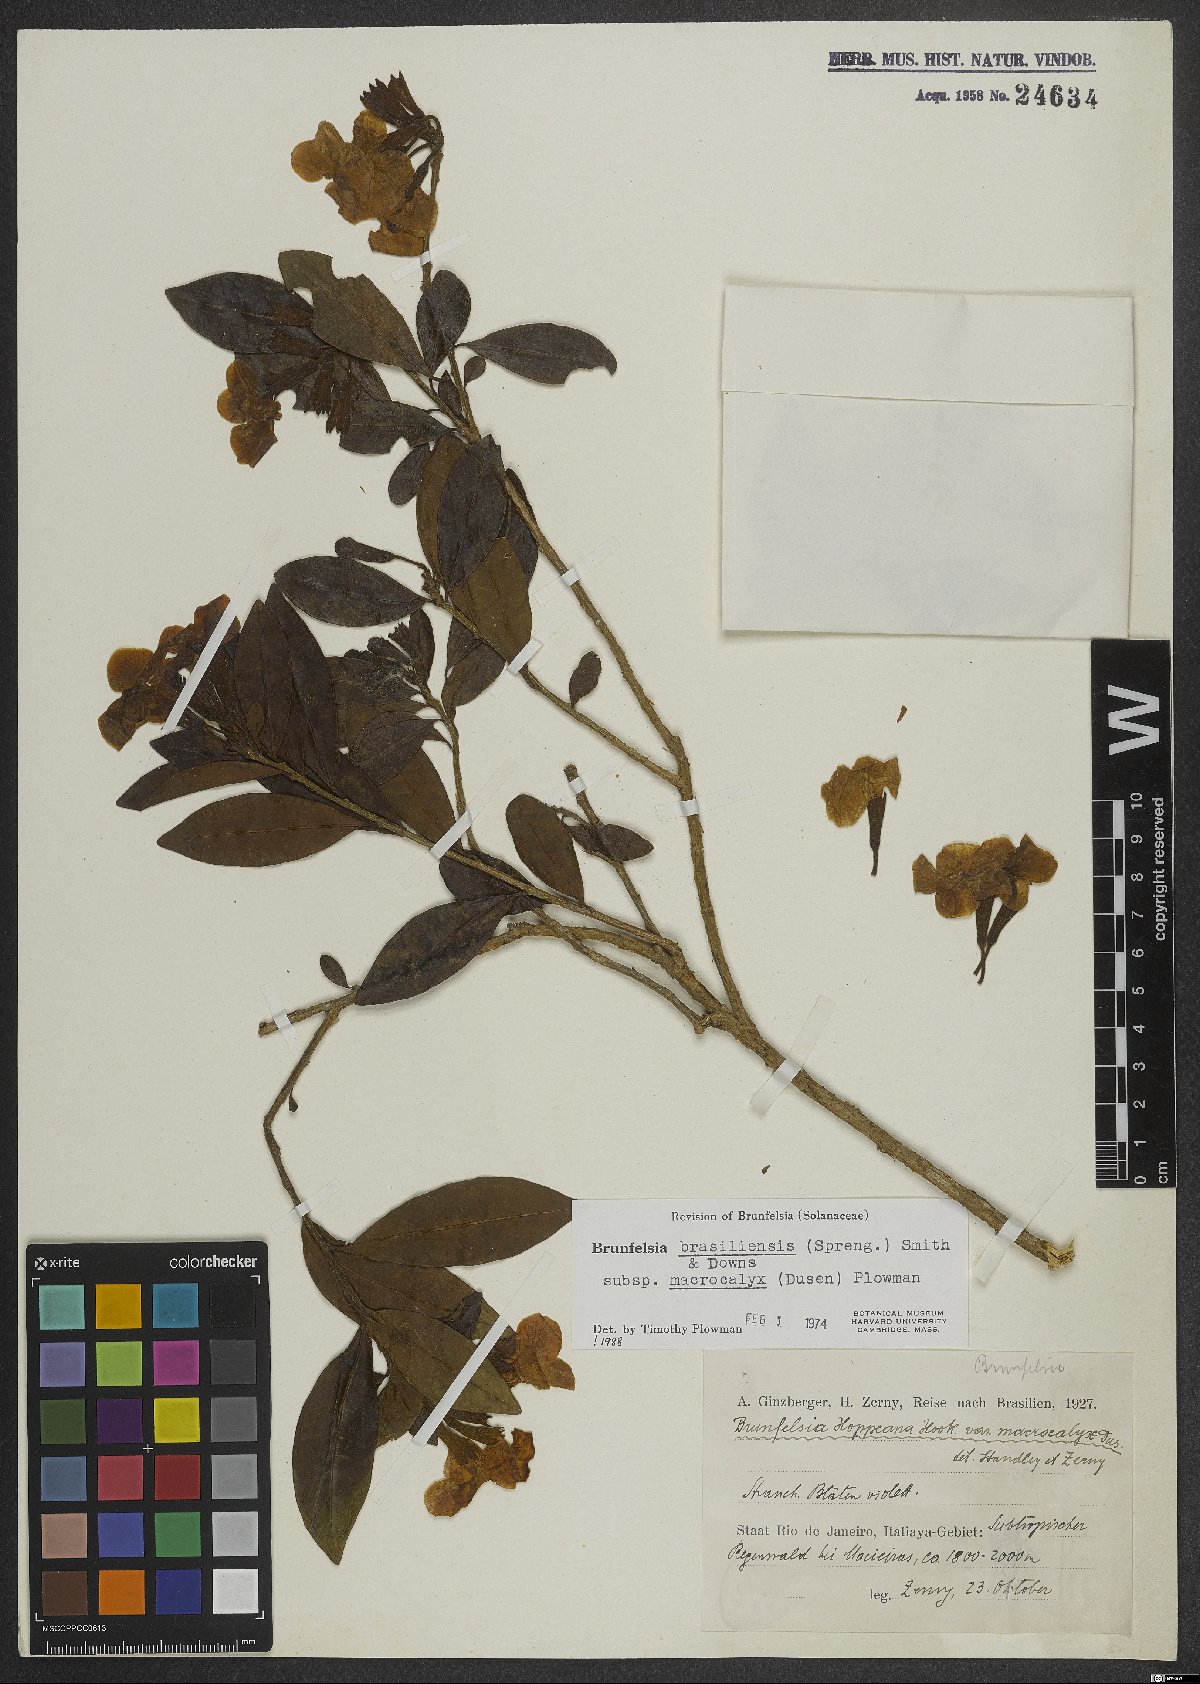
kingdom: Plantae
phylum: Tracheophyta
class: Magnoliopsida
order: Solanales
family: Solanaceae
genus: Brunfelsia
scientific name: Brunfelsia brasiliensis
